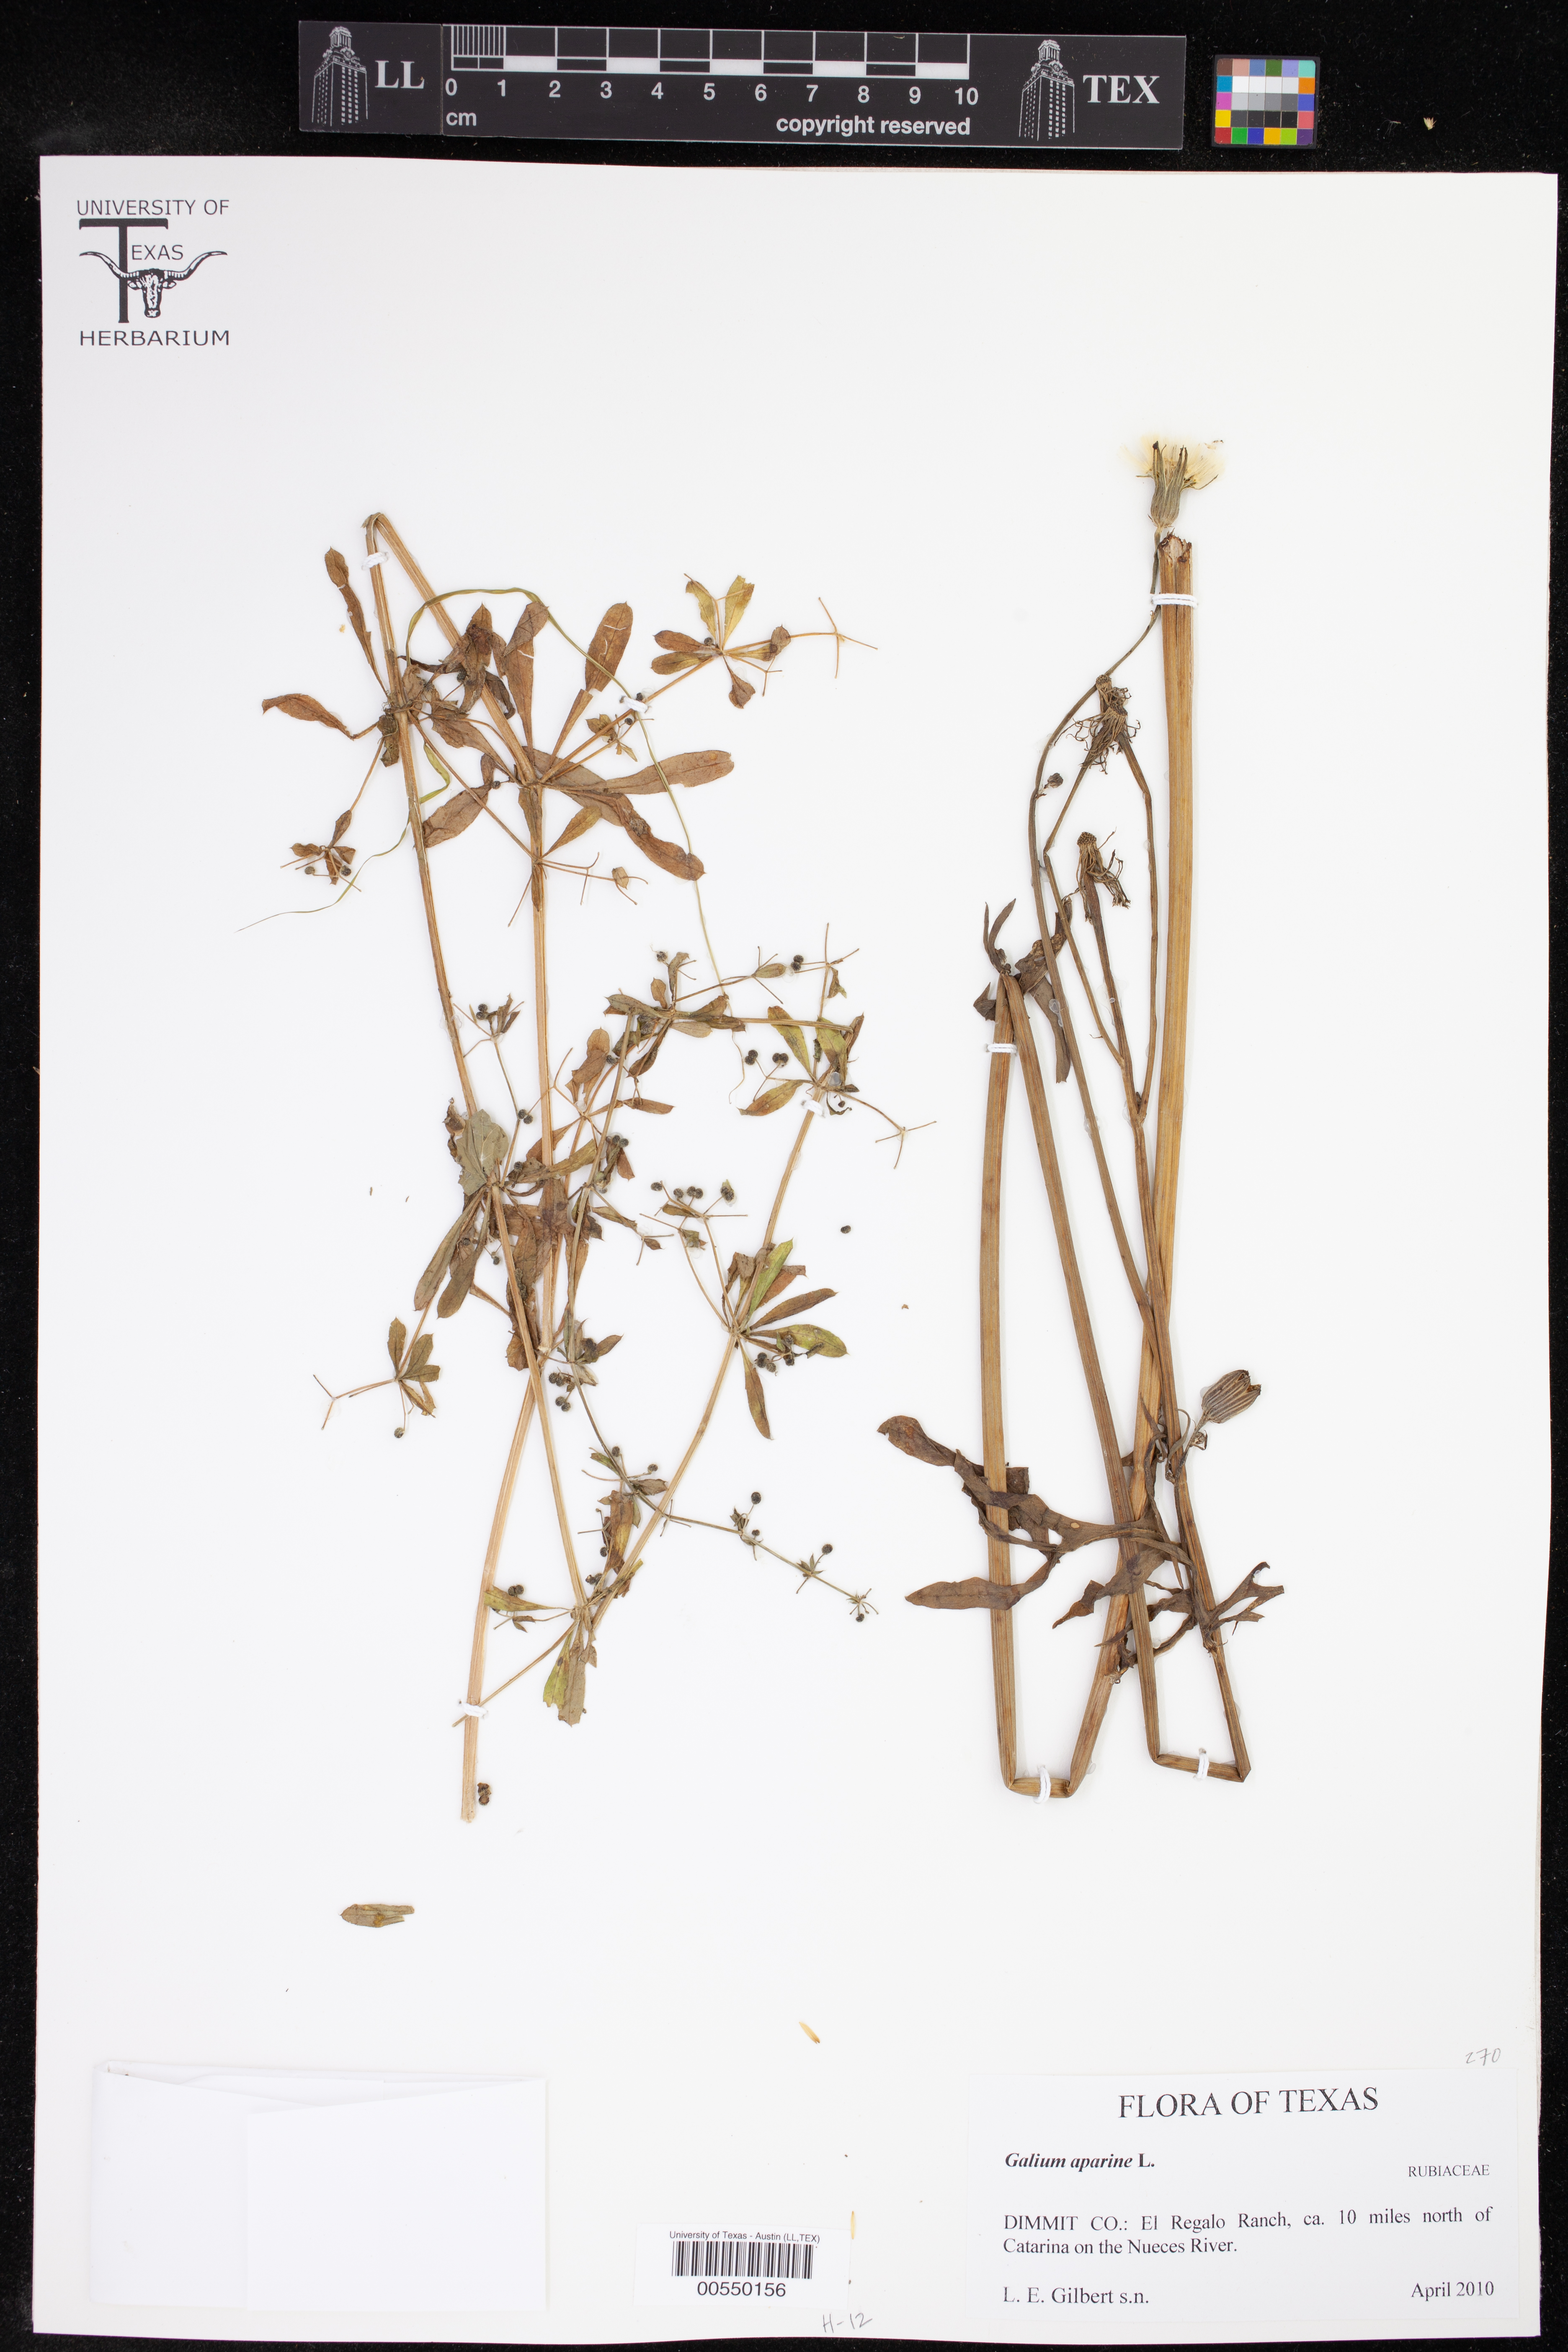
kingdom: Plantae
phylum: Tracheophyta
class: Magnoliopsida
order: Gentianales
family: Rubiaceae
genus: Galium
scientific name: Galium aparine
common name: Cleavers
